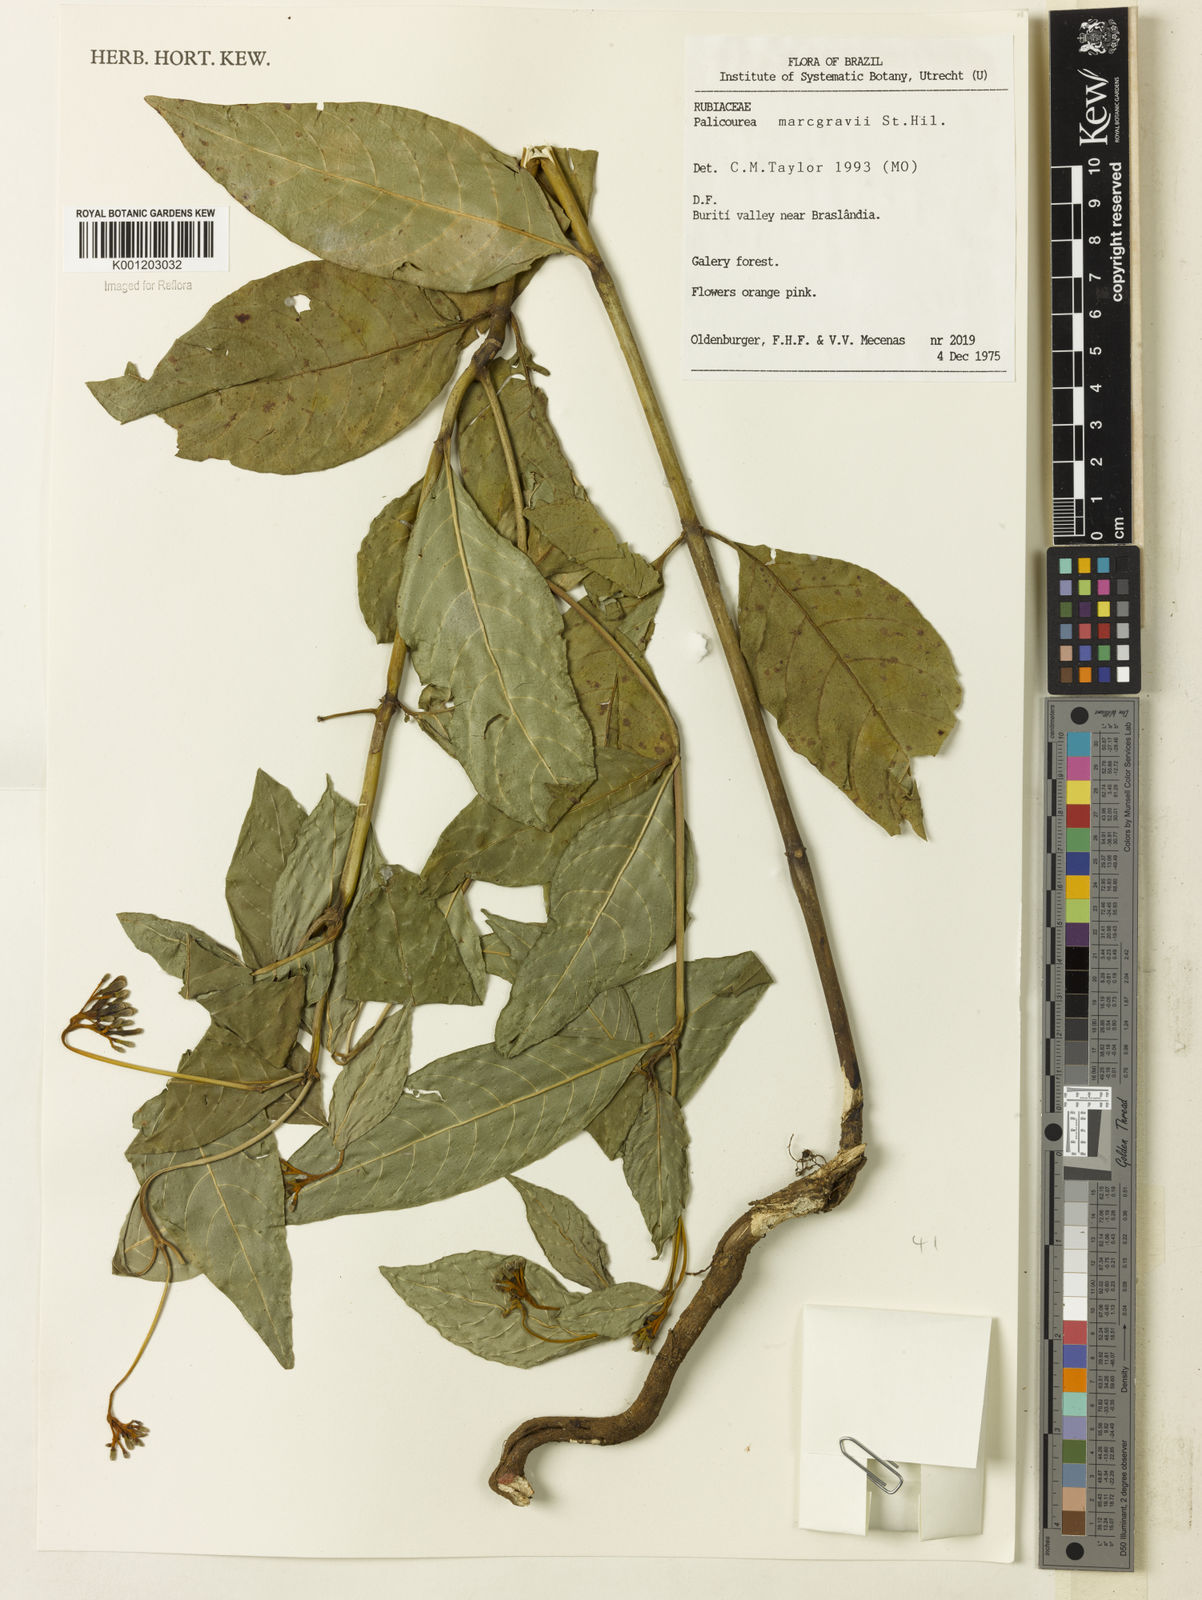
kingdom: Plantae
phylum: Tracheophyta
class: Magnoliopsida
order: Gentianales
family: Rubiaceae
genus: Palicourea
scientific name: Palicourea marcgravii
